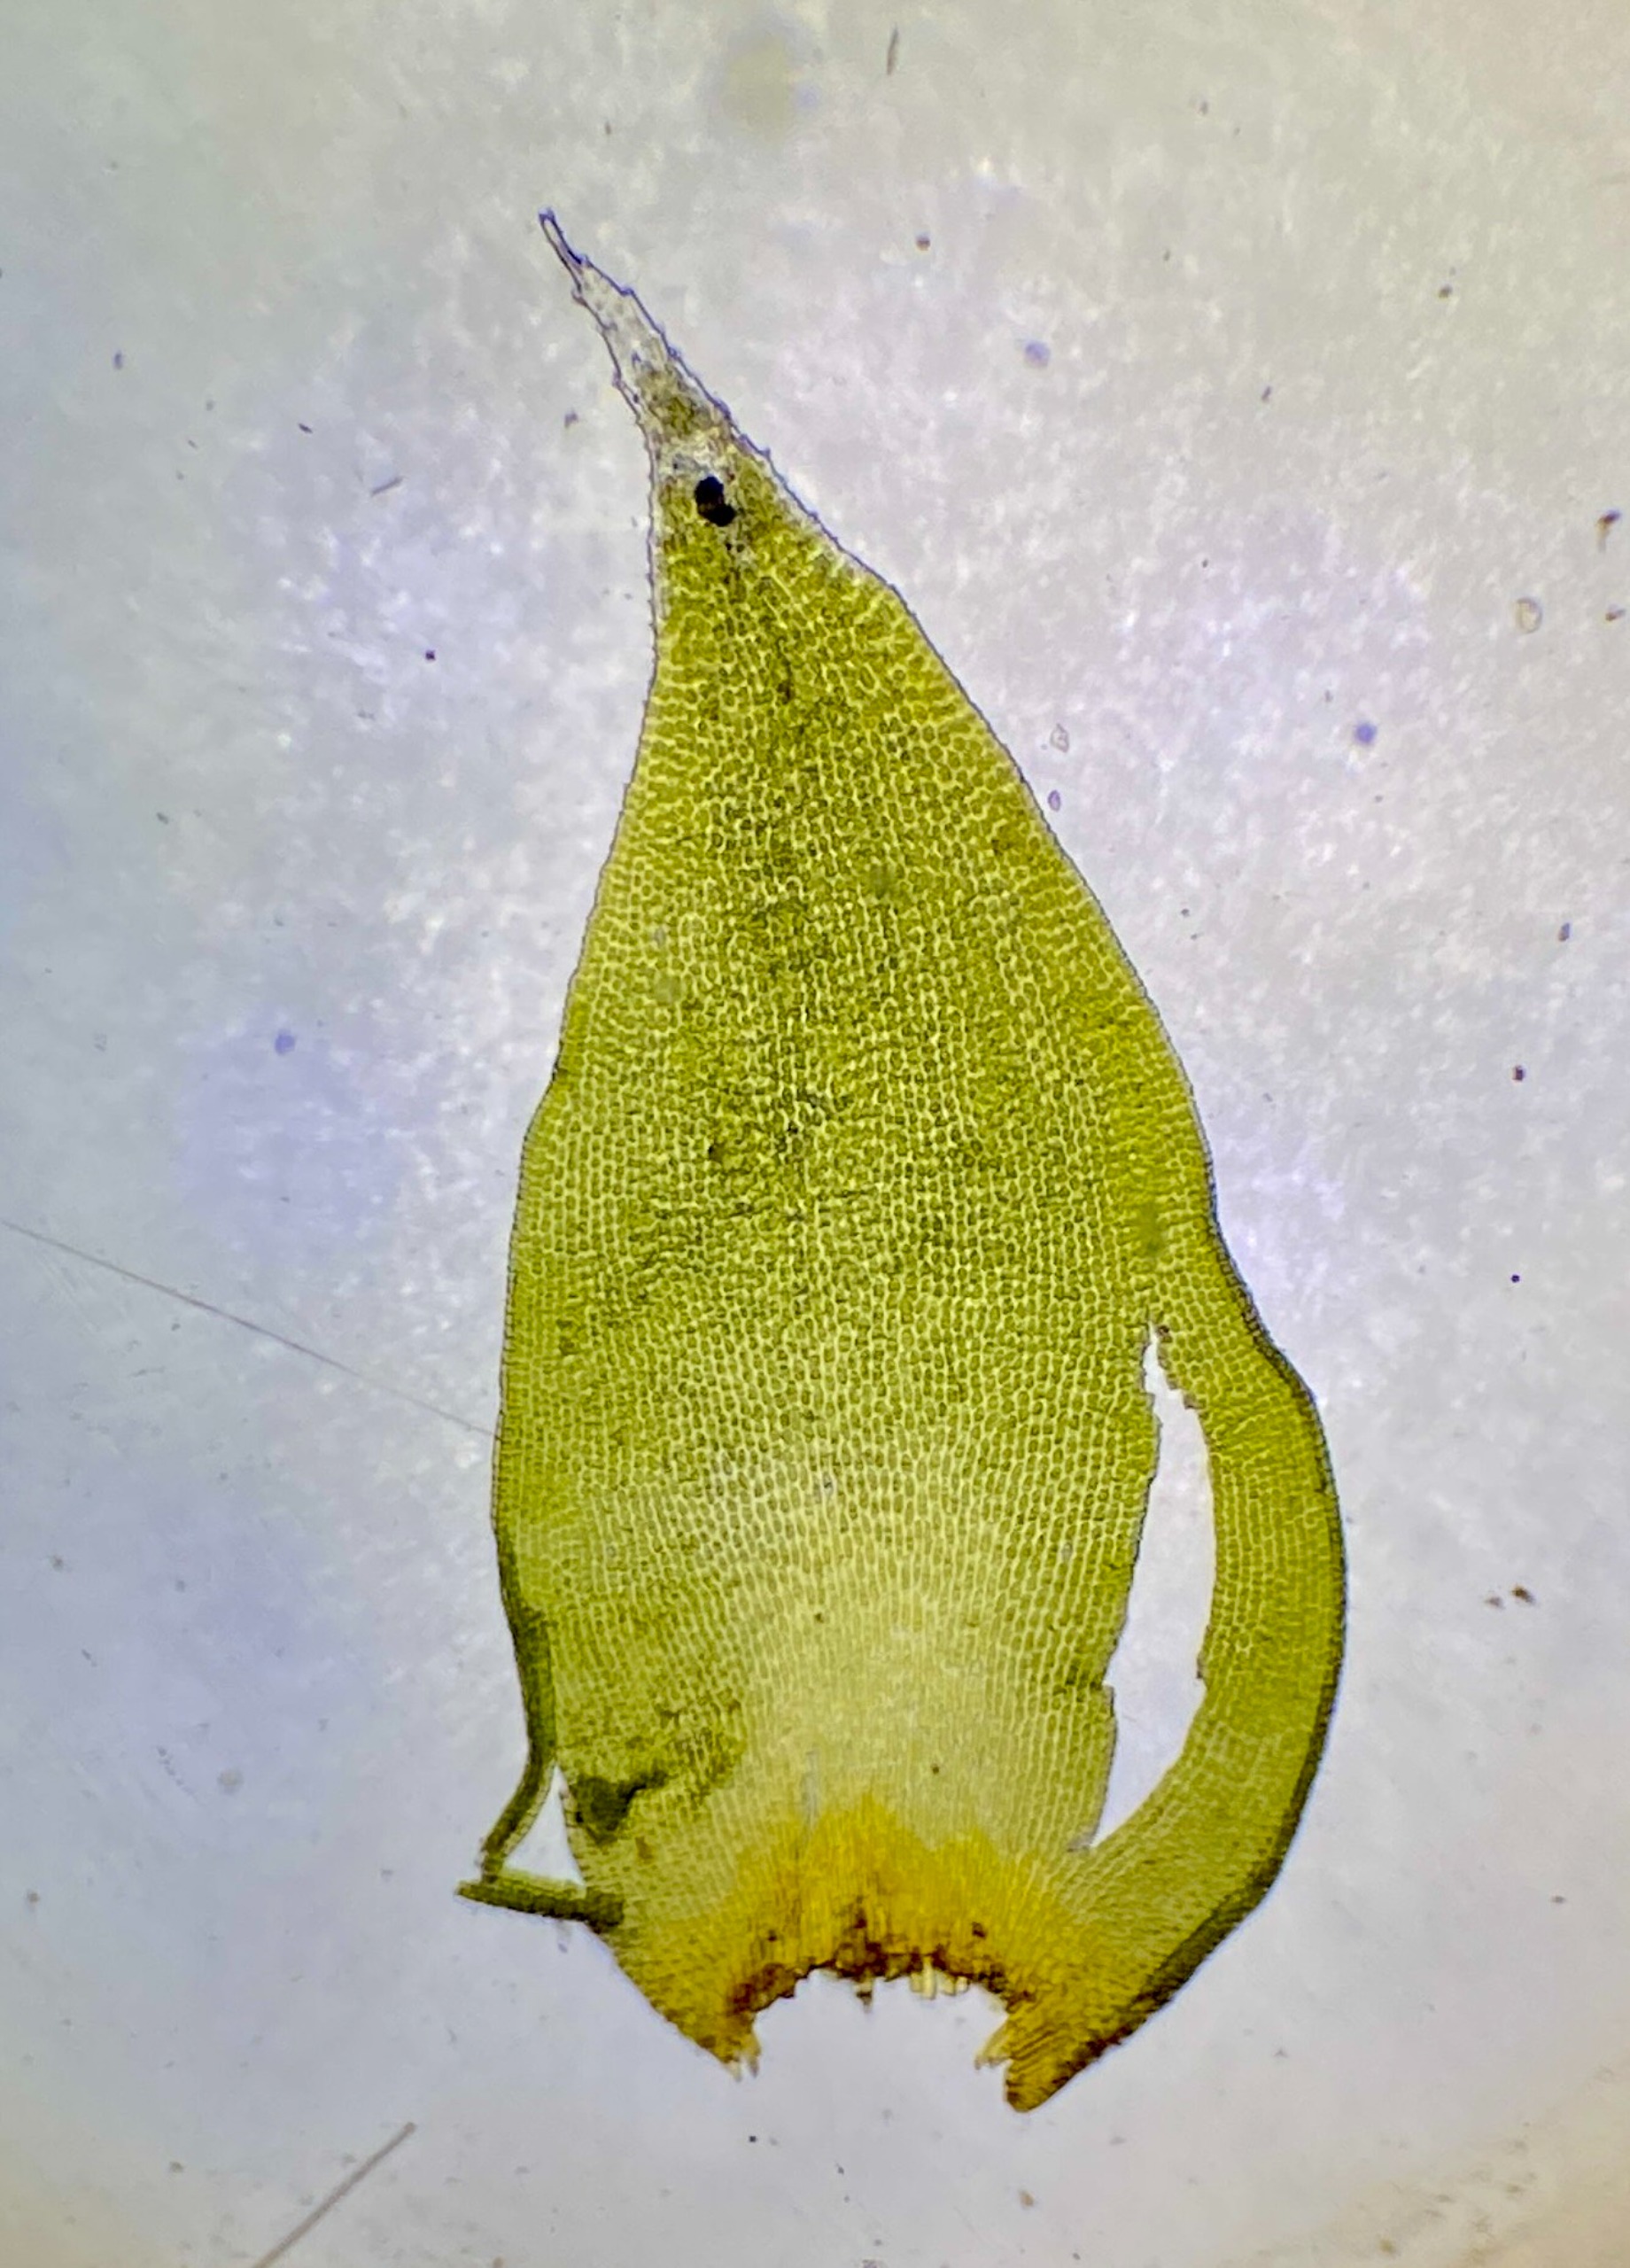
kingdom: Plantae
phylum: Bryophyta
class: Bryopsida
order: Hedwigiales
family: Hedwigiaceae
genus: Hedwigia
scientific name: Hedwigia ciliata
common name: Hvidspidset hedwigia
